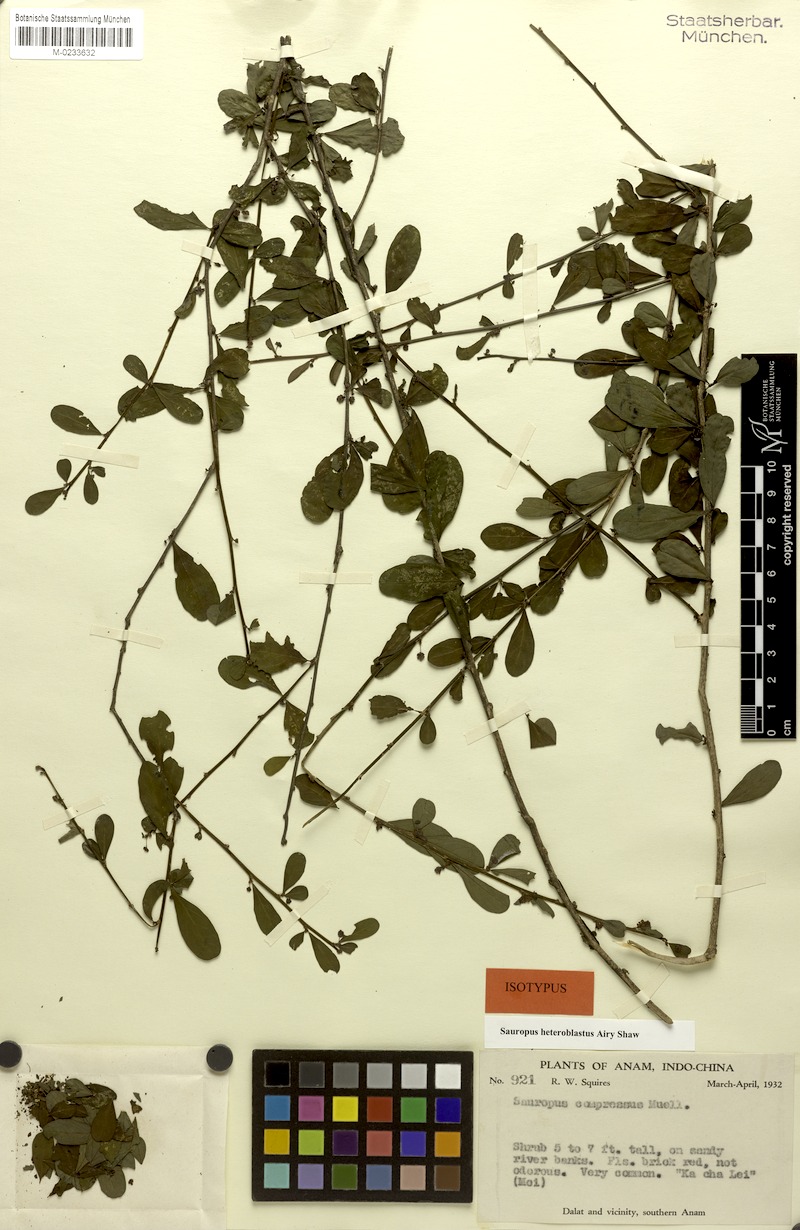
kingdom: Plantae
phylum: Tracheophyta
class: Magnoliopsida
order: Malpighiales
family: Phyllanthaceae
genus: Breynia
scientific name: Breynia heteroblasta
